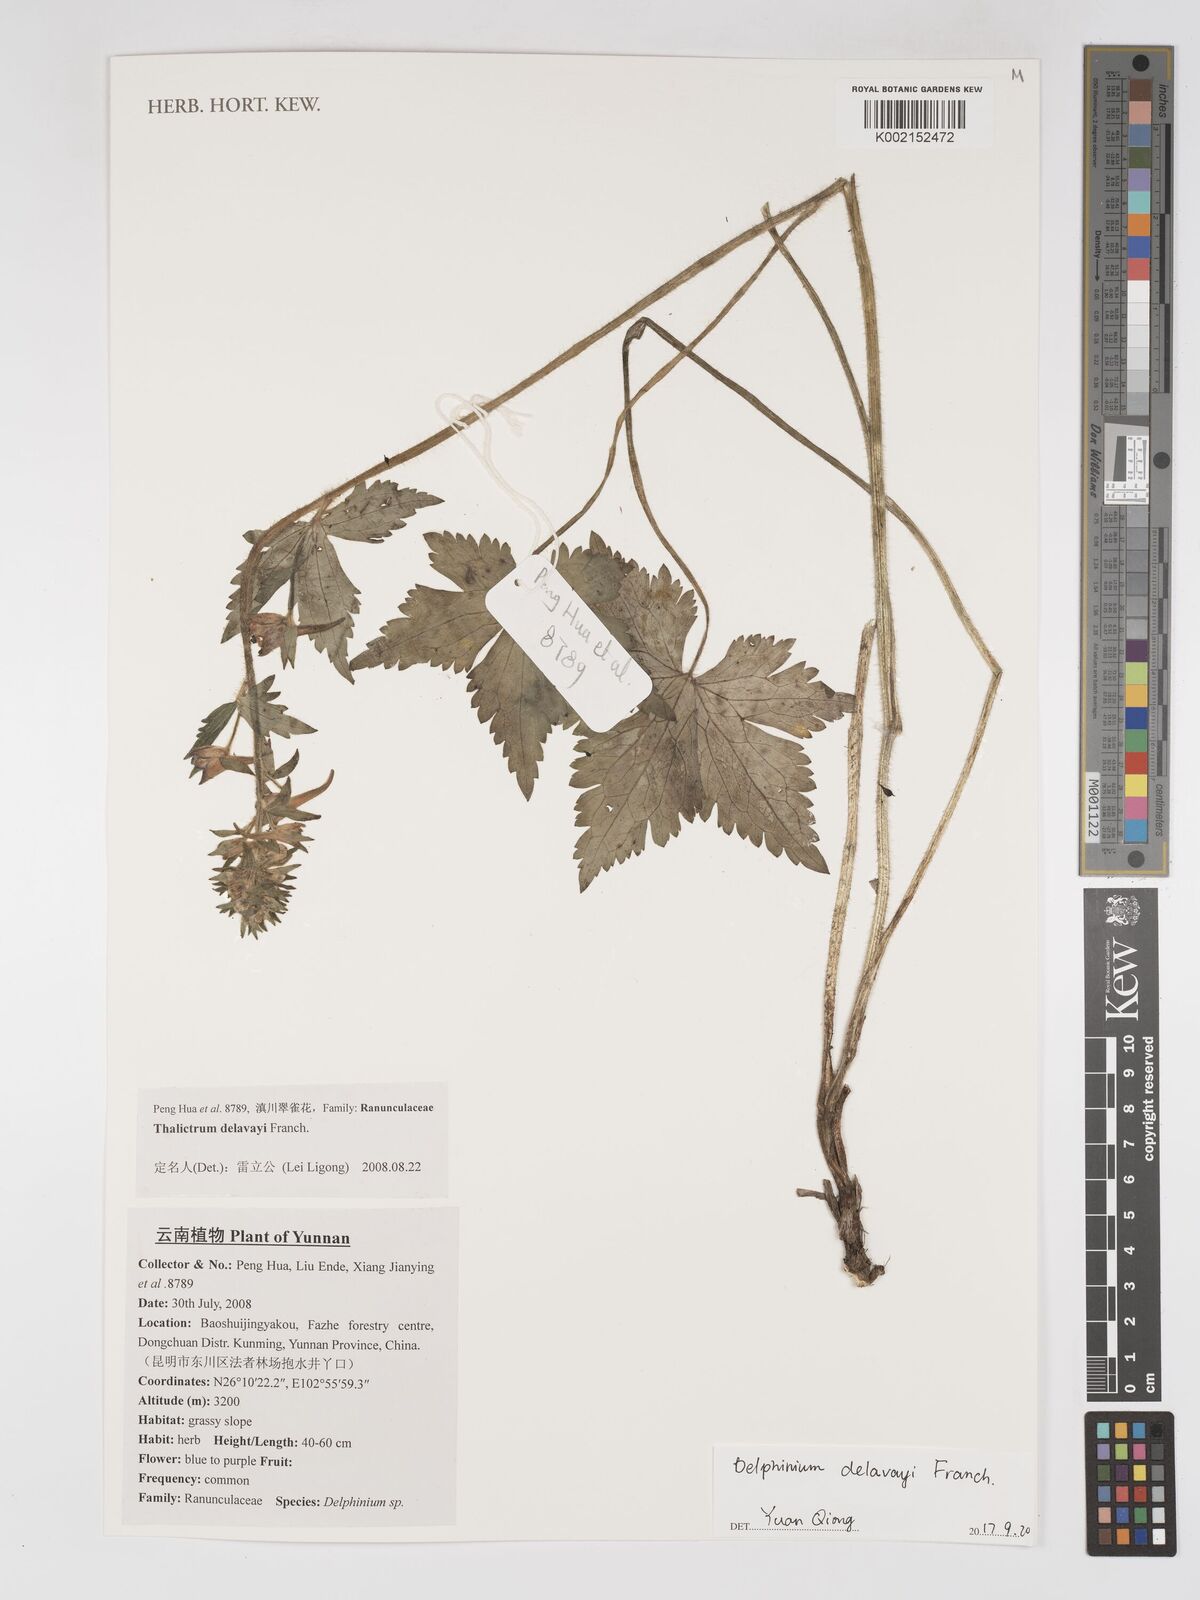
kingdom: Plantae
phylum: Tracheophyta
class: Magnoliopsida
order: Ranunculales
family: Ranunculaceae
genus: Delphinium
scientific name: Delphinium delavayi
